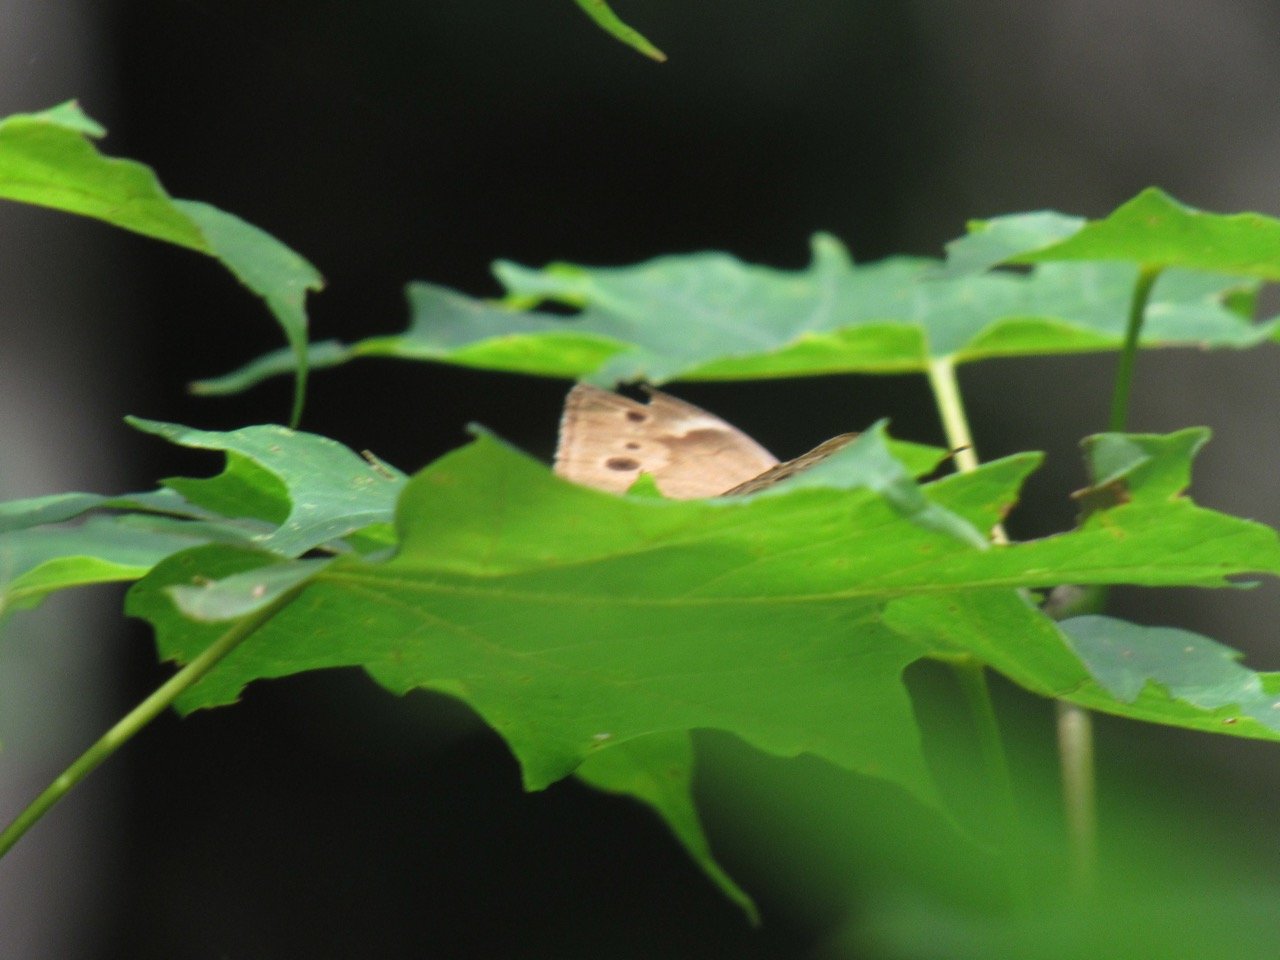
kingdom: Animalia
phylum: Arthropoda
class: Insecta
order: Lepidoptera
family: Nymphalidae
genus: Lethe
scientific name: Lethe anthedon
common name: Northern Pearly-Eye
